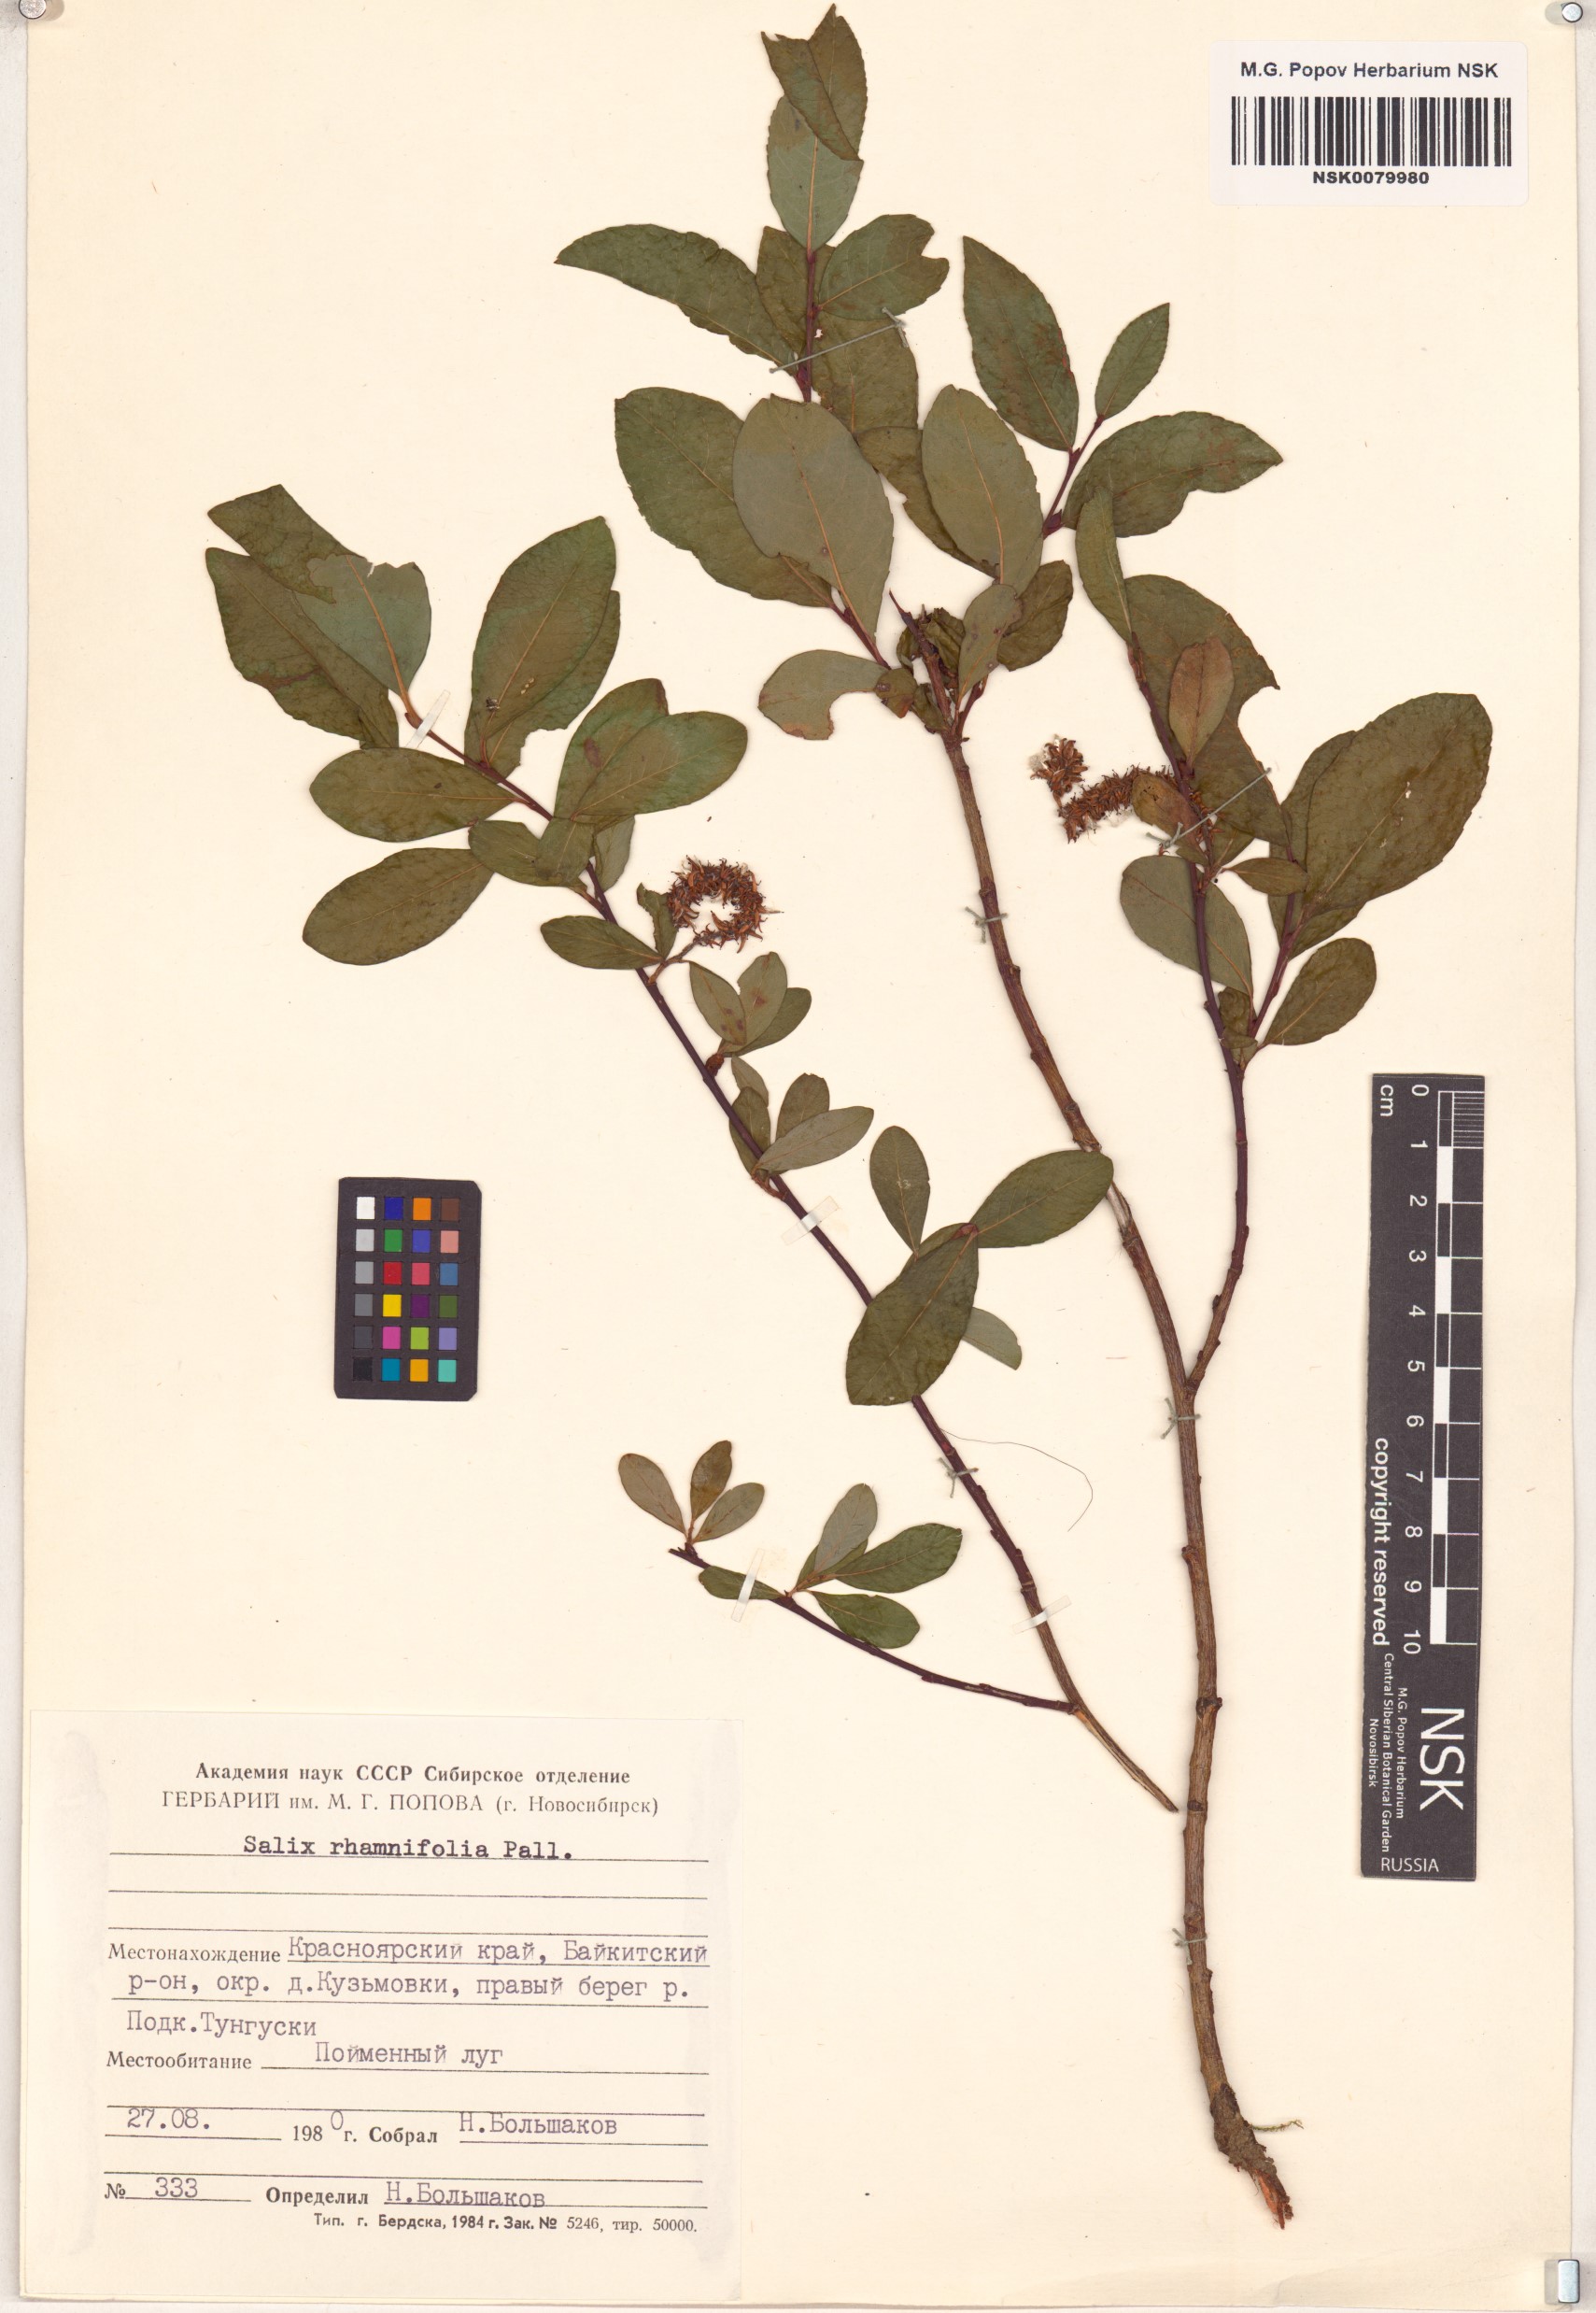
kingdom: Plantae
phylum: Tracheophyta
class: Magnoliopsida
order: Malpighiales
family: Salicaceae
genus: Salix
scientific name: Salix rhamnifolia
